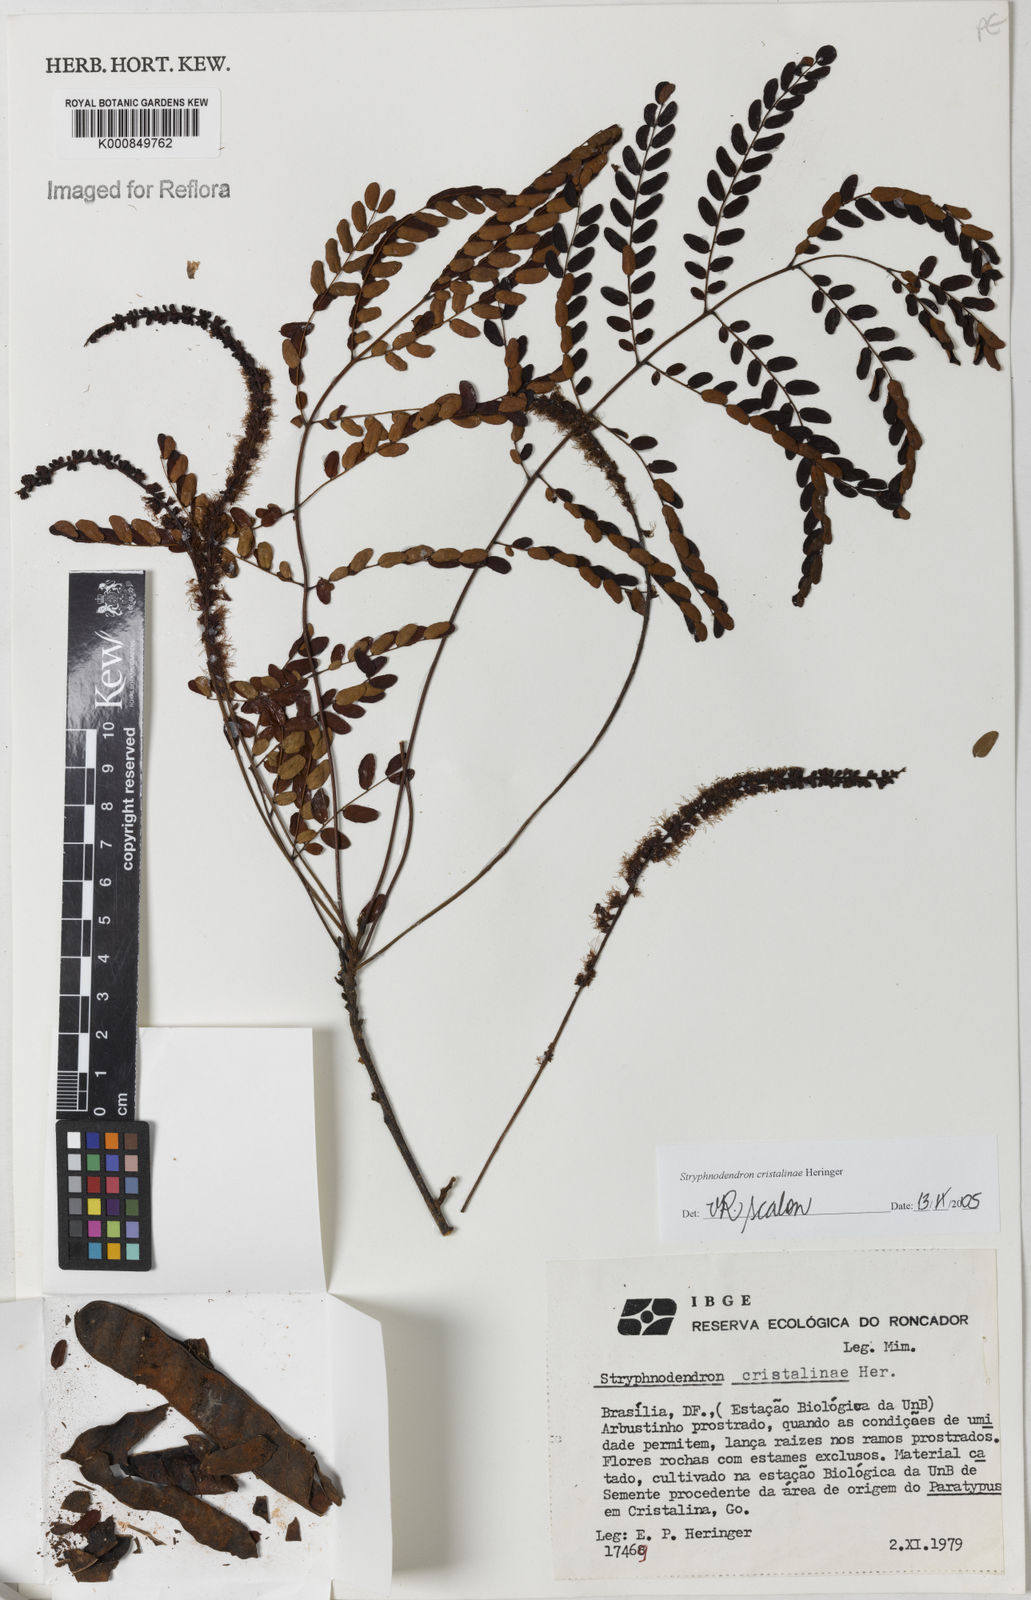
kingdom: Plantae
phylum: Tracheophyta
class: Magnoliopsida
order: Fabales
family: Fabaceae
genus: Stryphnodendron
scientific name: Stryphnodendron cristalinae
